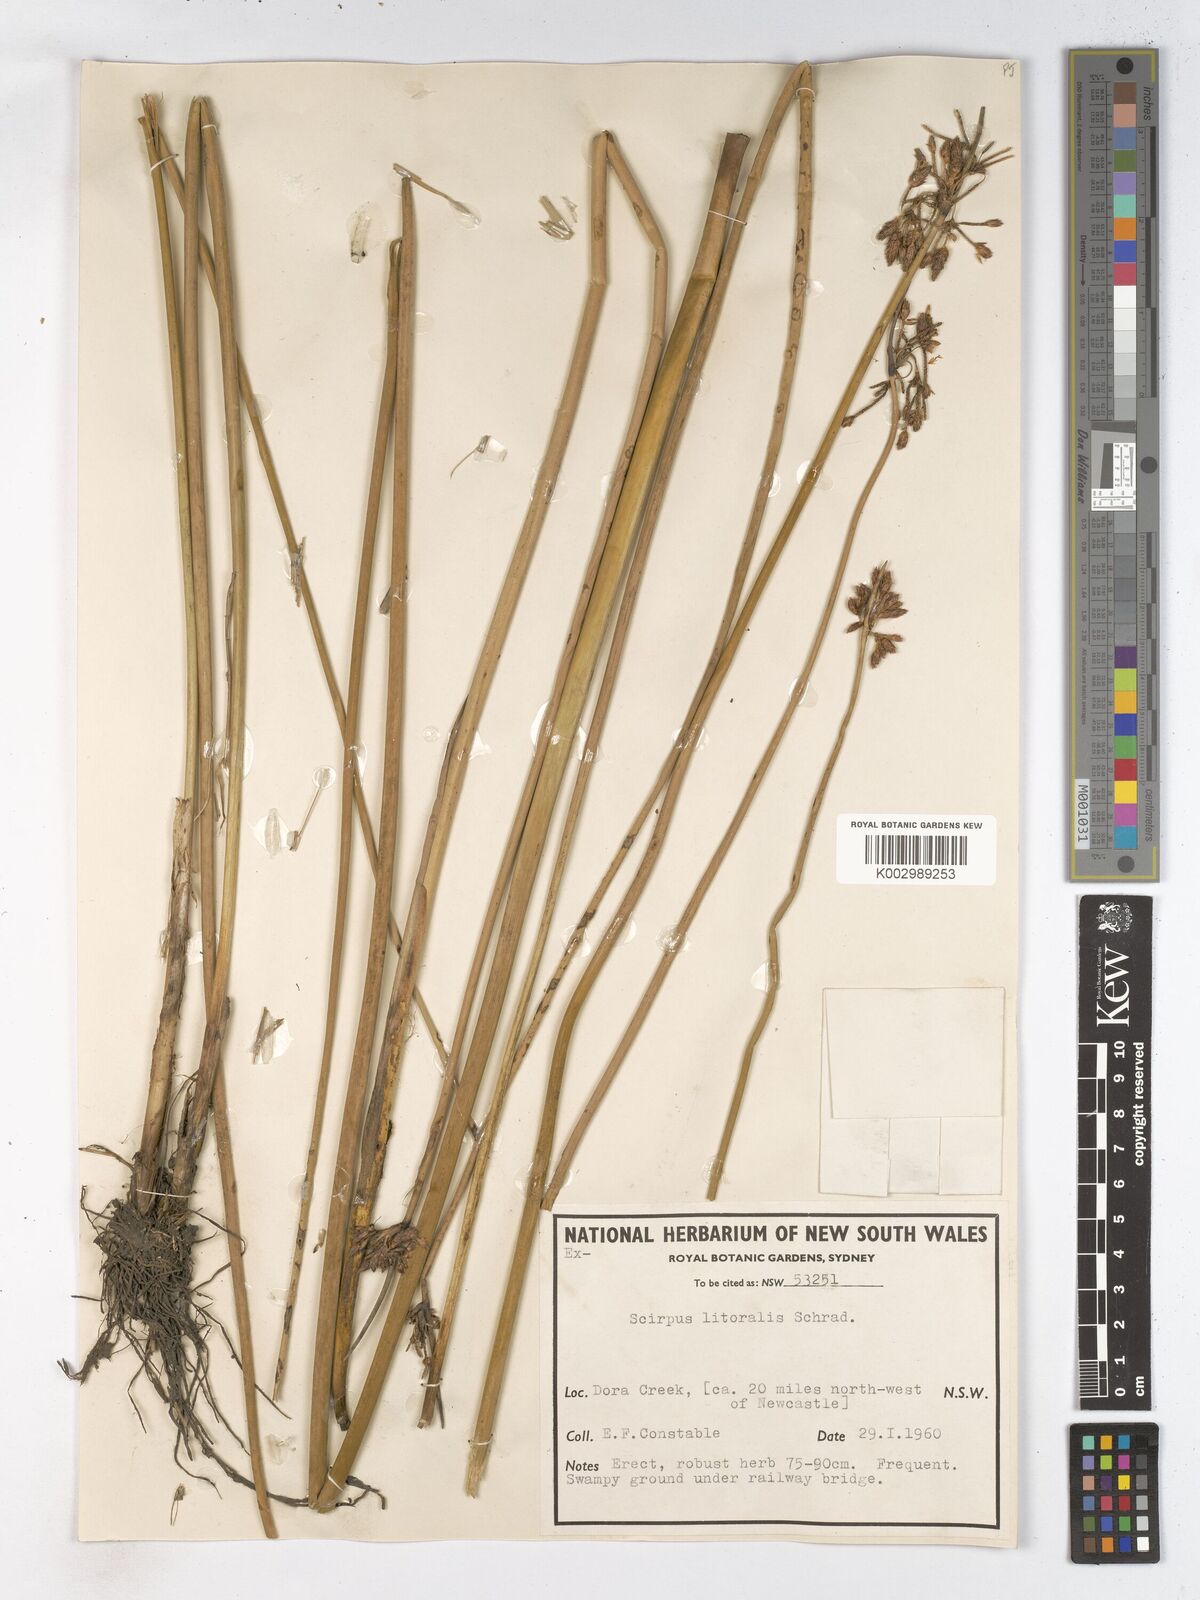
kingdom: Plantae
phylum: Tracheophyta
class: Liliopsida
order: Poales
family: Cyperaceae
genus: Schoenoplectus
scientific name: Schoenoplectus litoralis
